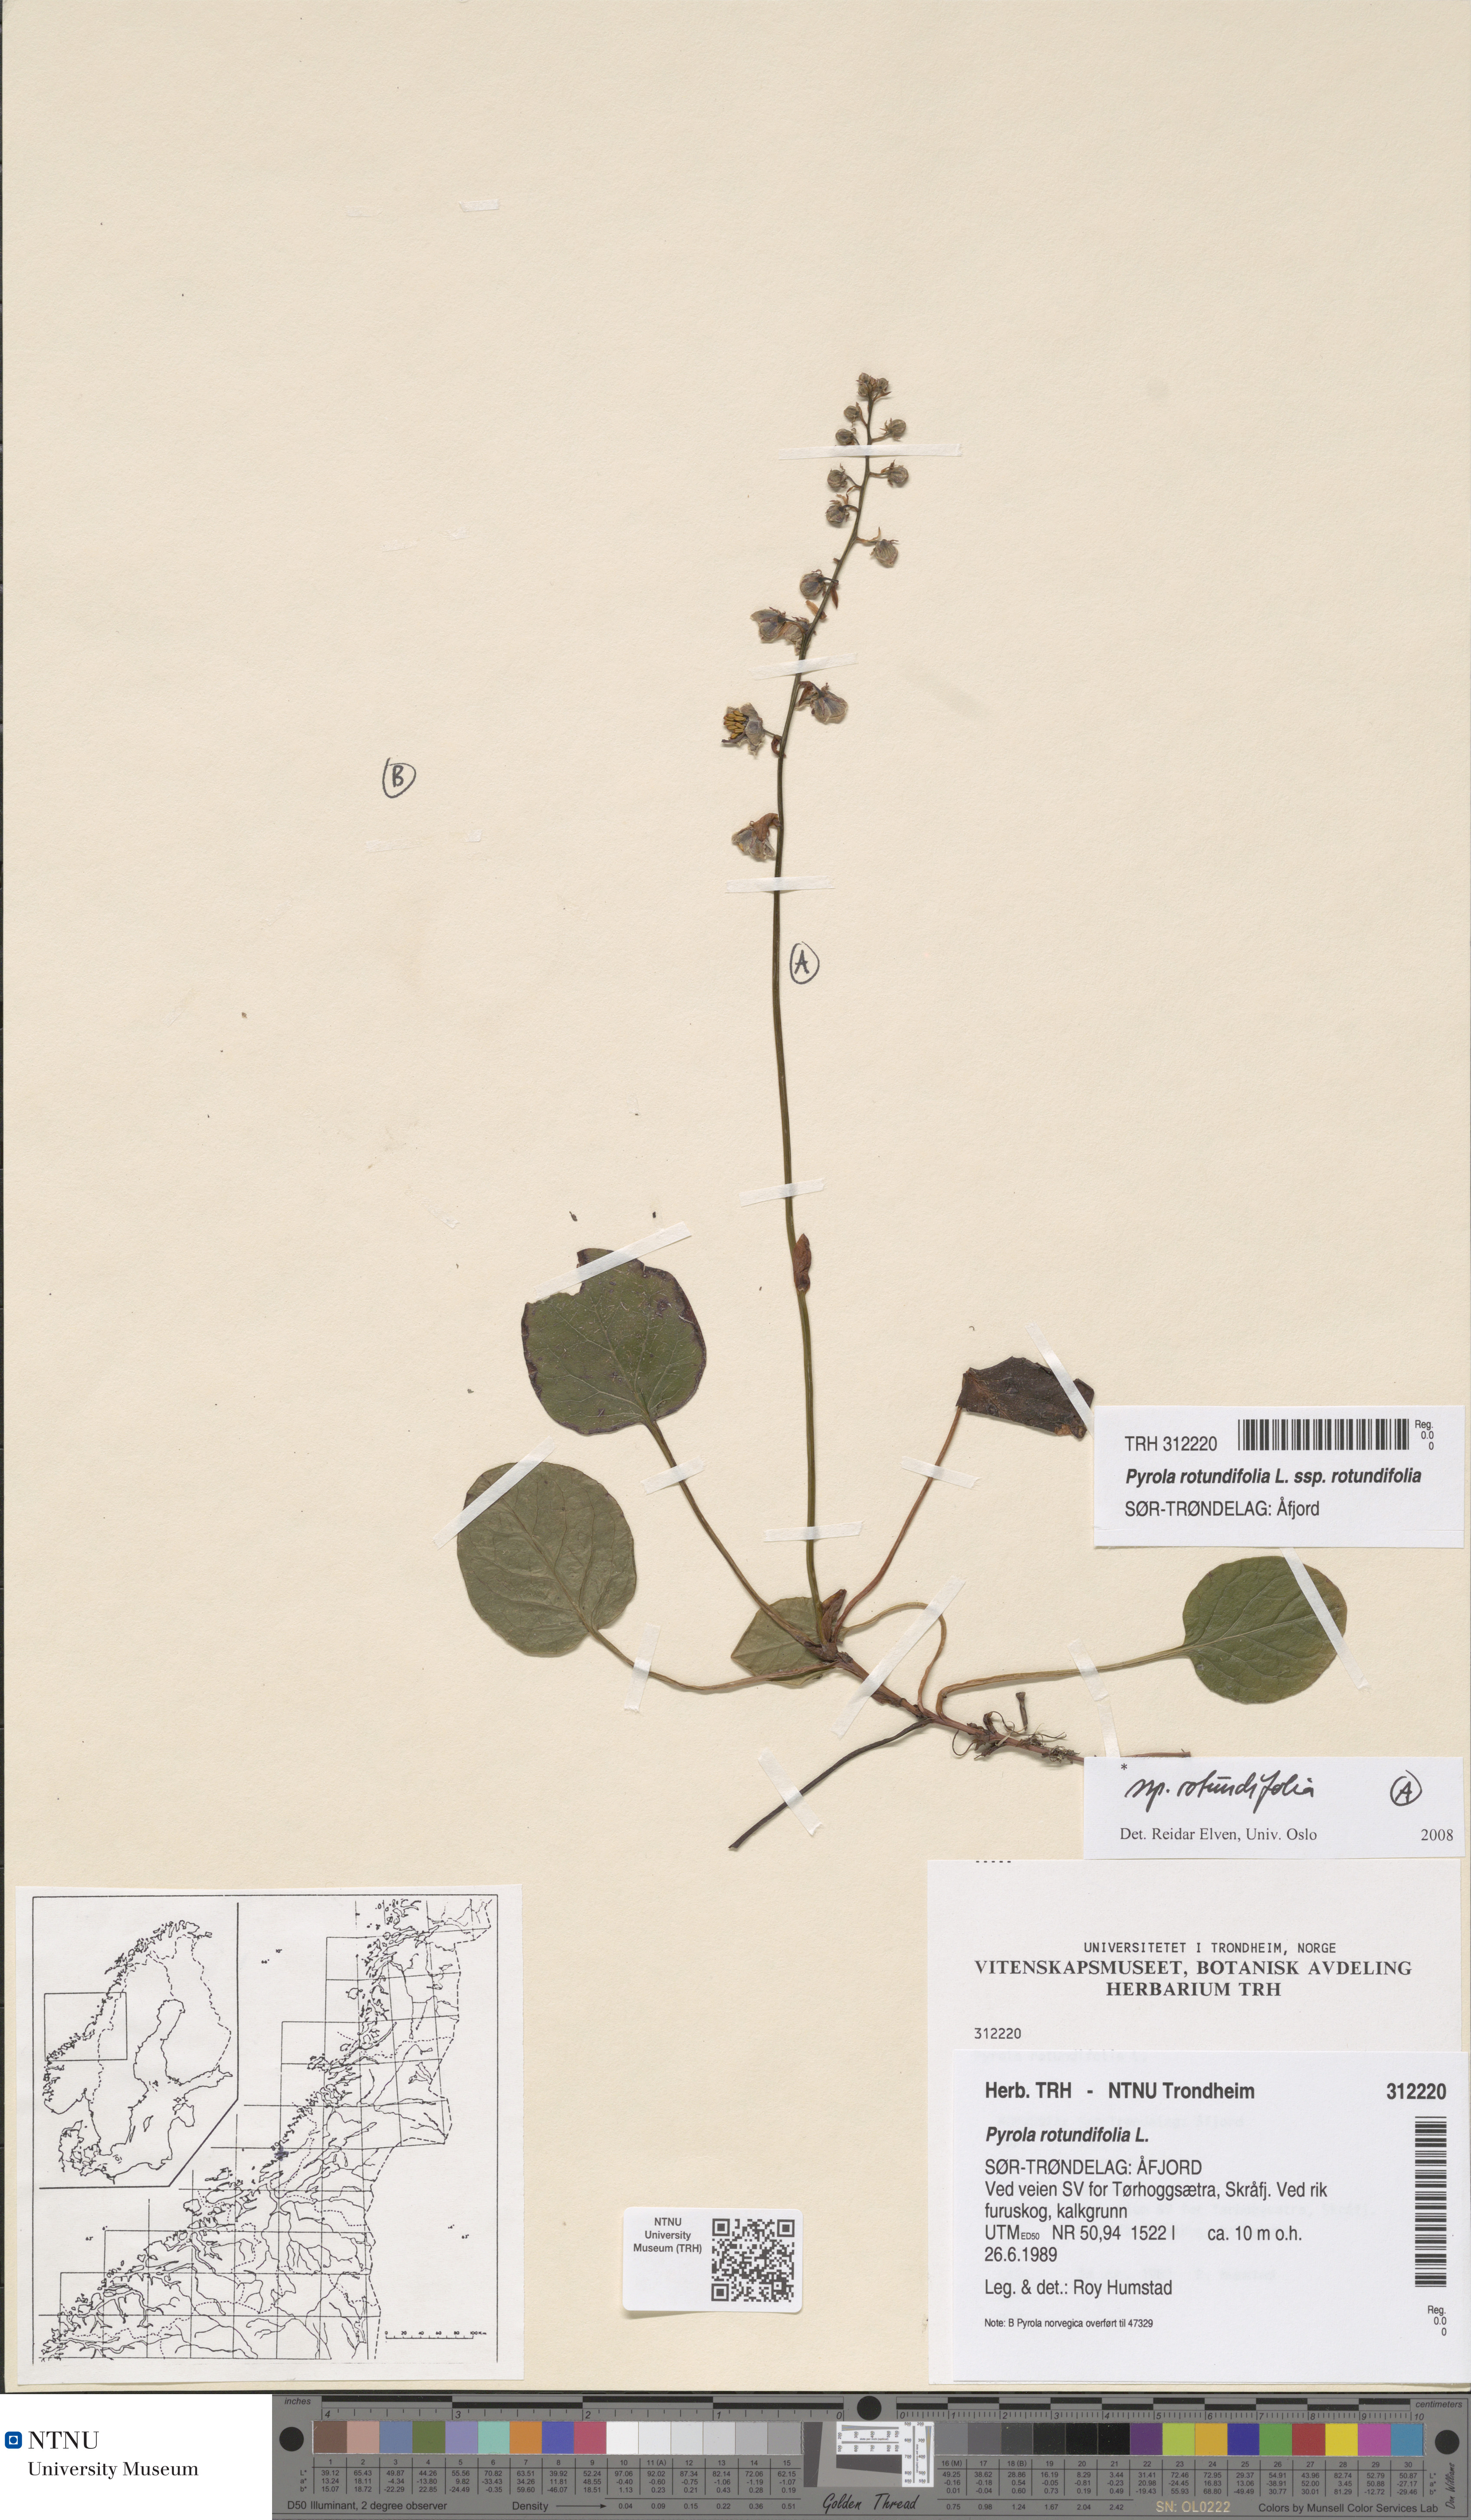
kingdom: Plantae
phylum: Tracheophyta
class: Magnoliopsida
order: Ericales
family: Ericaceae
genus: Pyrola
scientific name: Pyrola rotundifolia
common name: Round-leaved wintergreen
